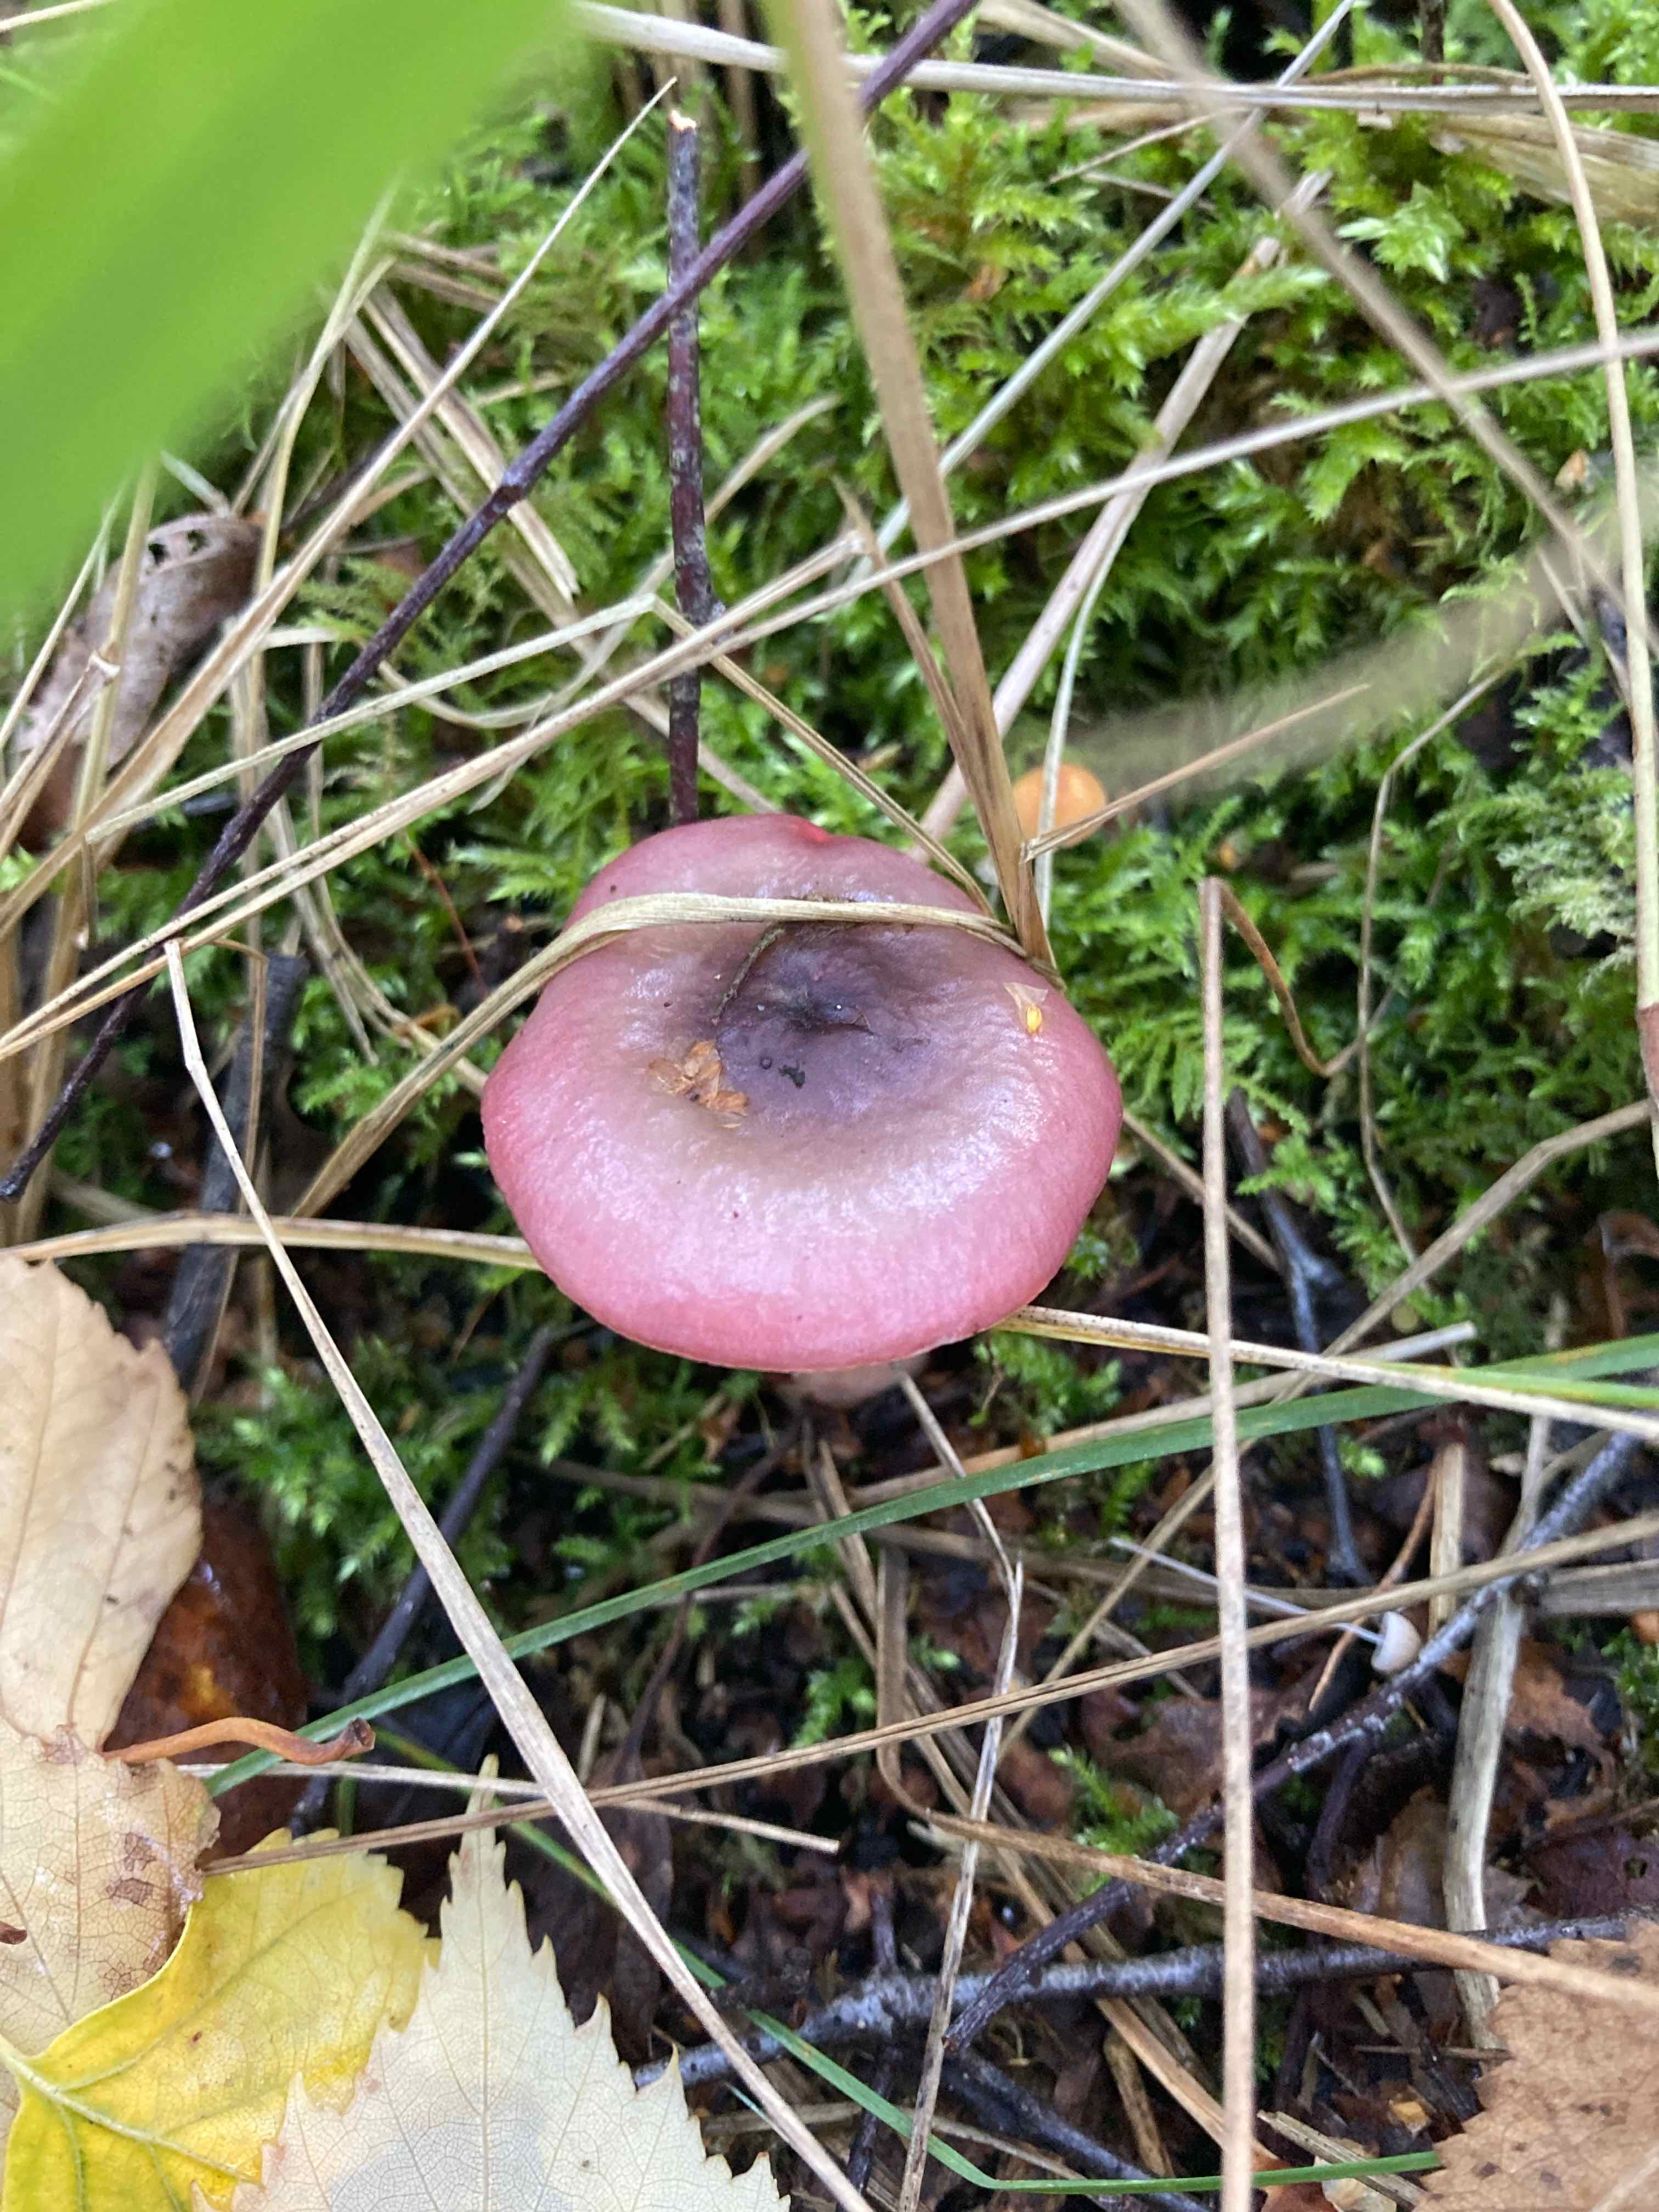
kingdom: Fungi
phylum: Basidiomycota
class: Agaricomycetes
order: Russulales
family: Russulaceae
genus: Russula
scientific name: Russula
